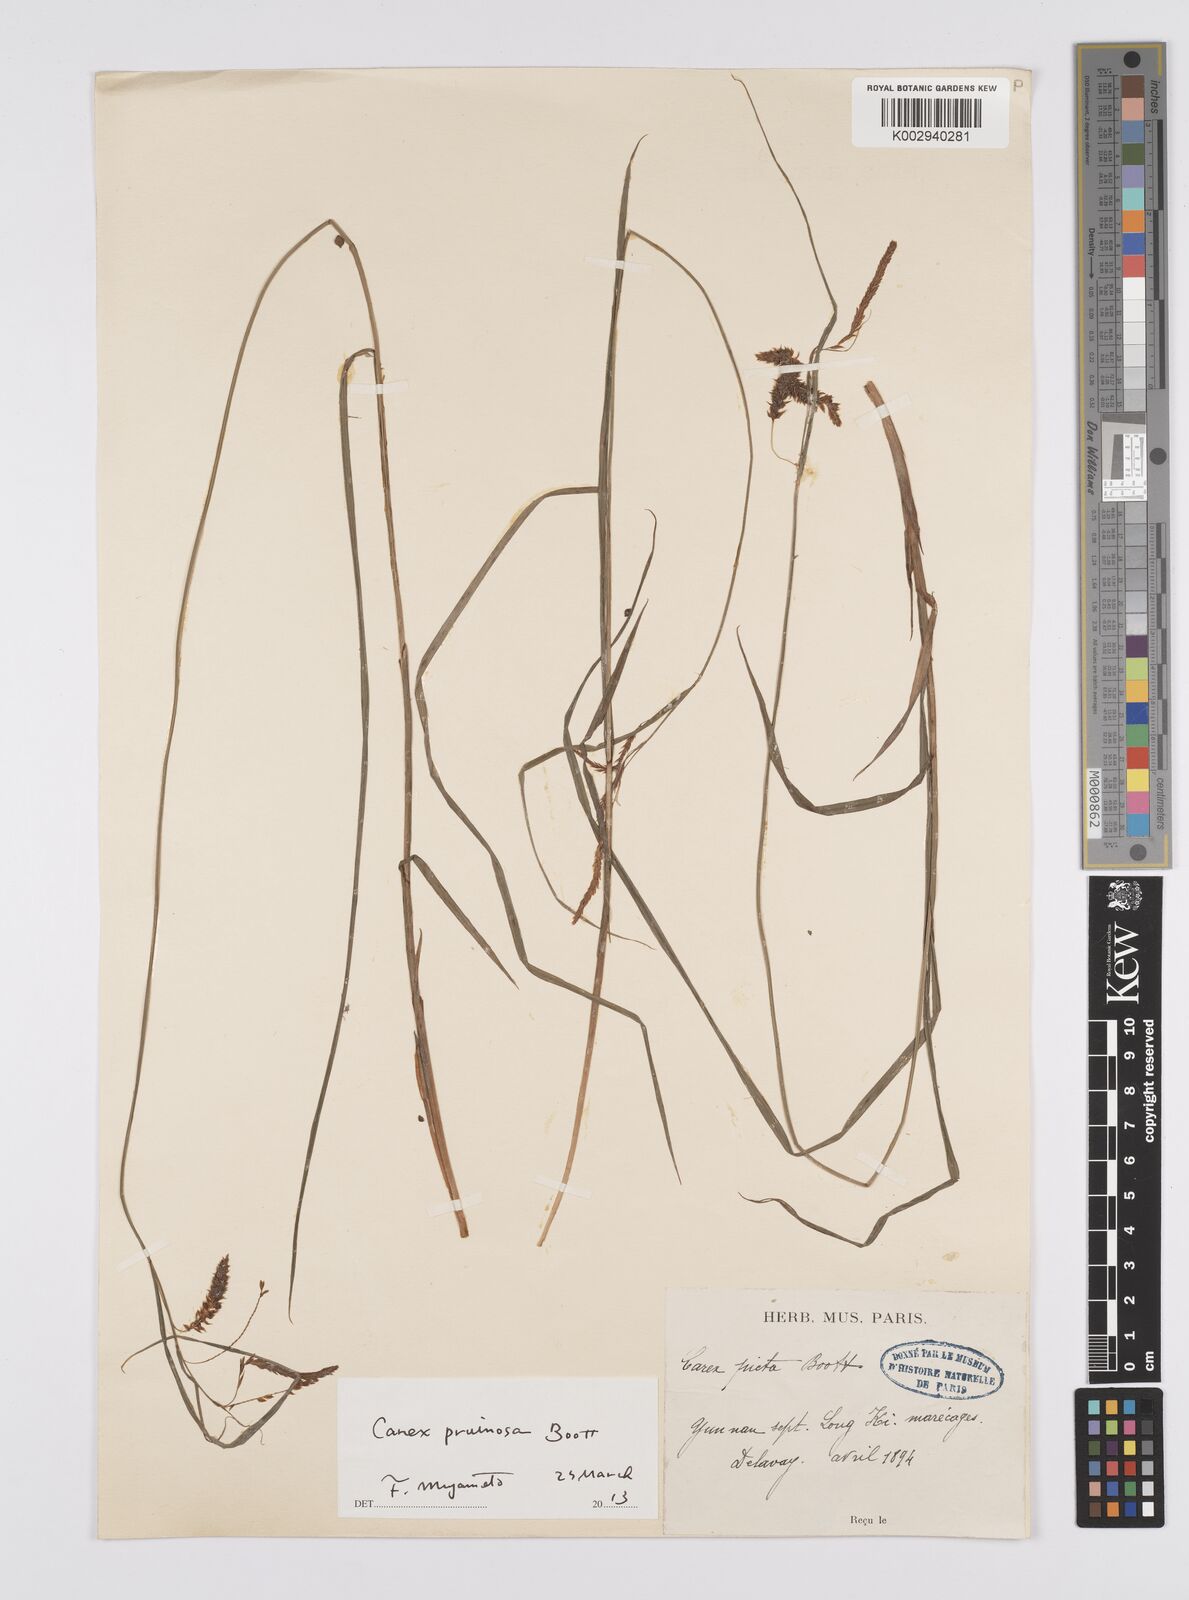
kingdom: Plantae
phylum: Tracheophyta
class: Liliopsida
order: Poales
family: Cyperaceae
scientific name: Cyperaceae
